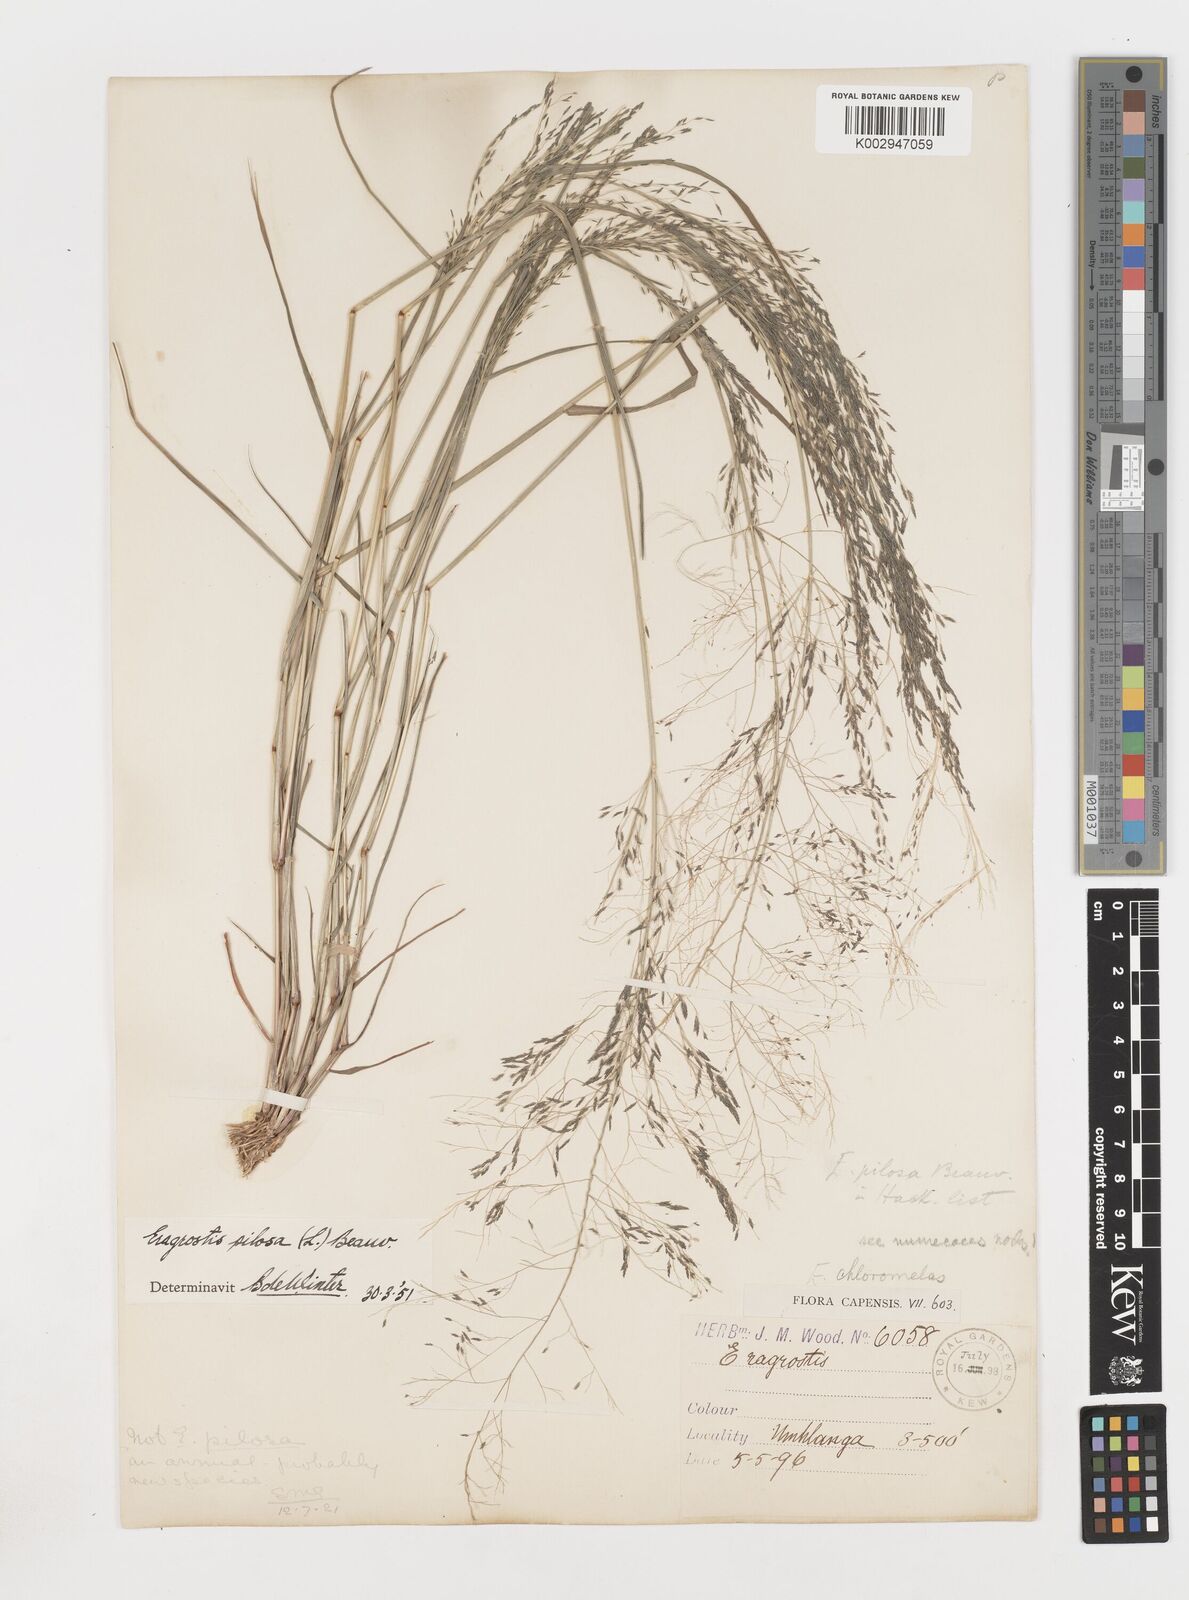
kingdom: Plantae
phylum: Tracheophyta
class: Liliopsida
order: Poales
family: Poaceae
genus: Eragrostis
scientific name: Eragrostis pilosa
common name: Indian lovegrass
